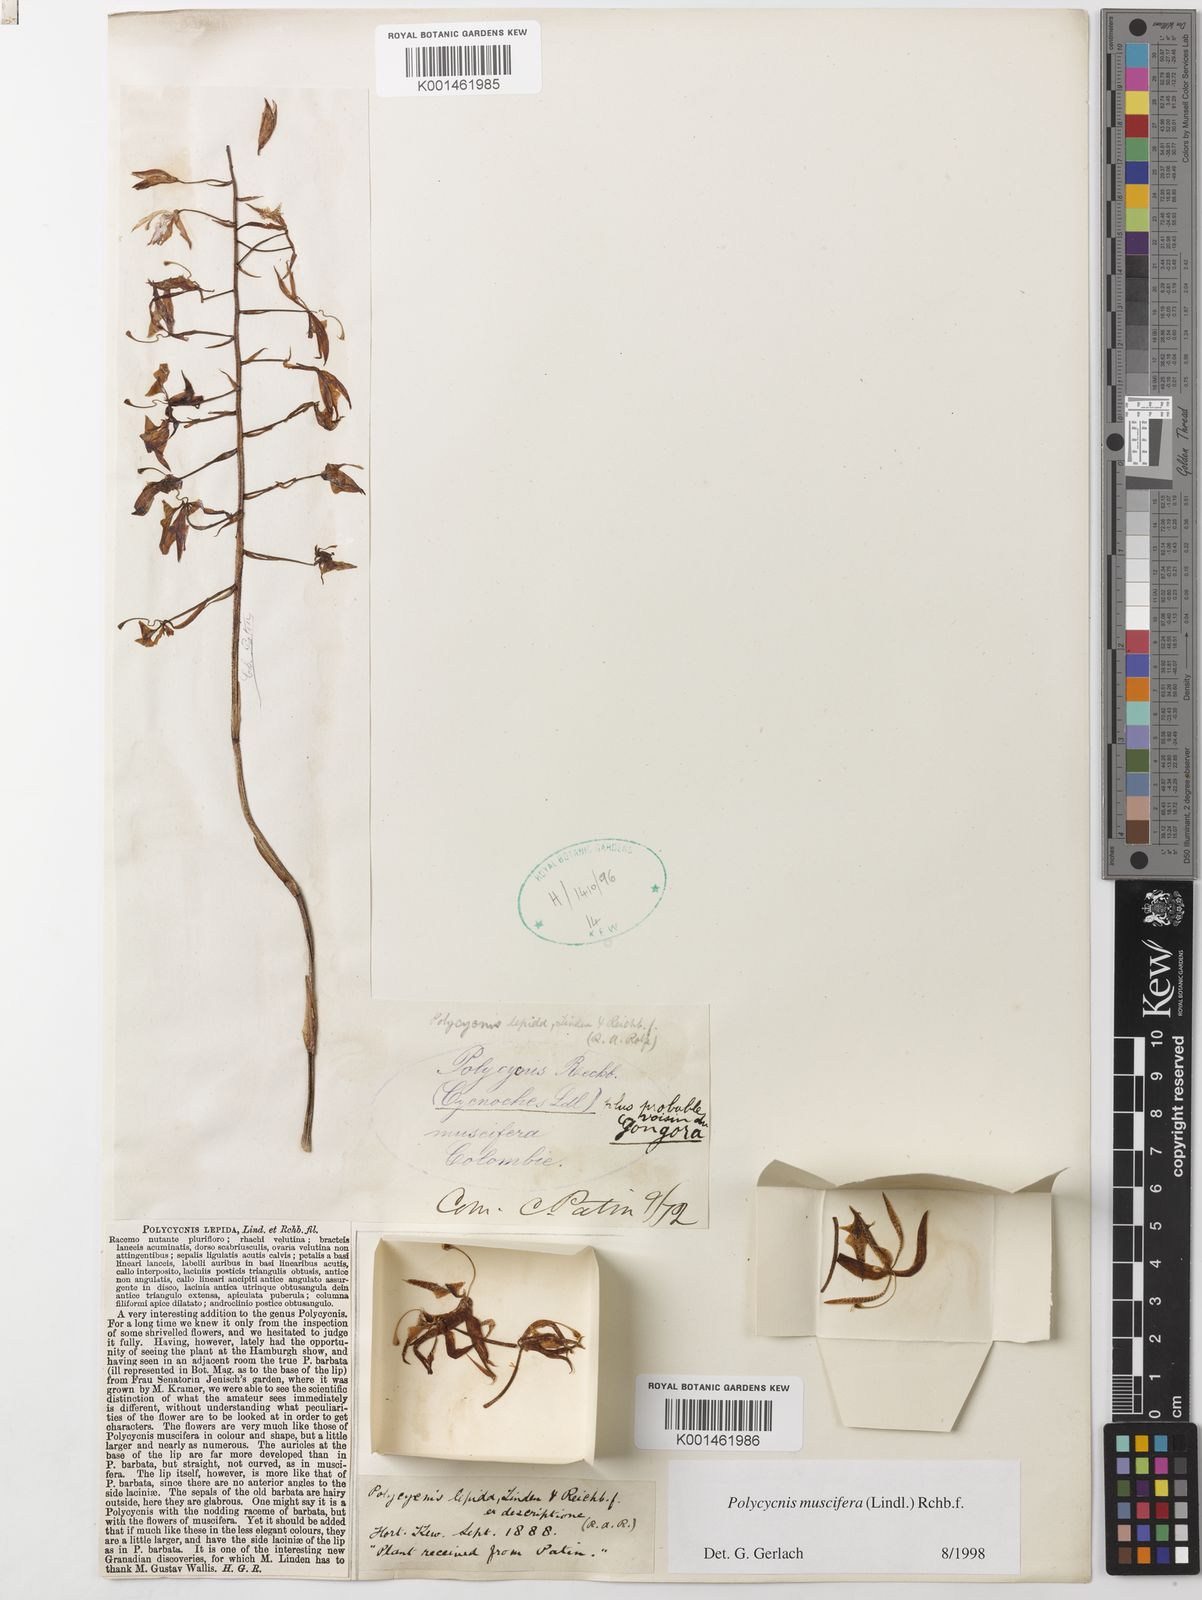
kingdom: Plantae
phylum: Tracheophyta
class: Liliopsida
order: Asparagales
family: Orchidaceae
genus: Polycycnis
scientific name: Polycycnis muscifera
